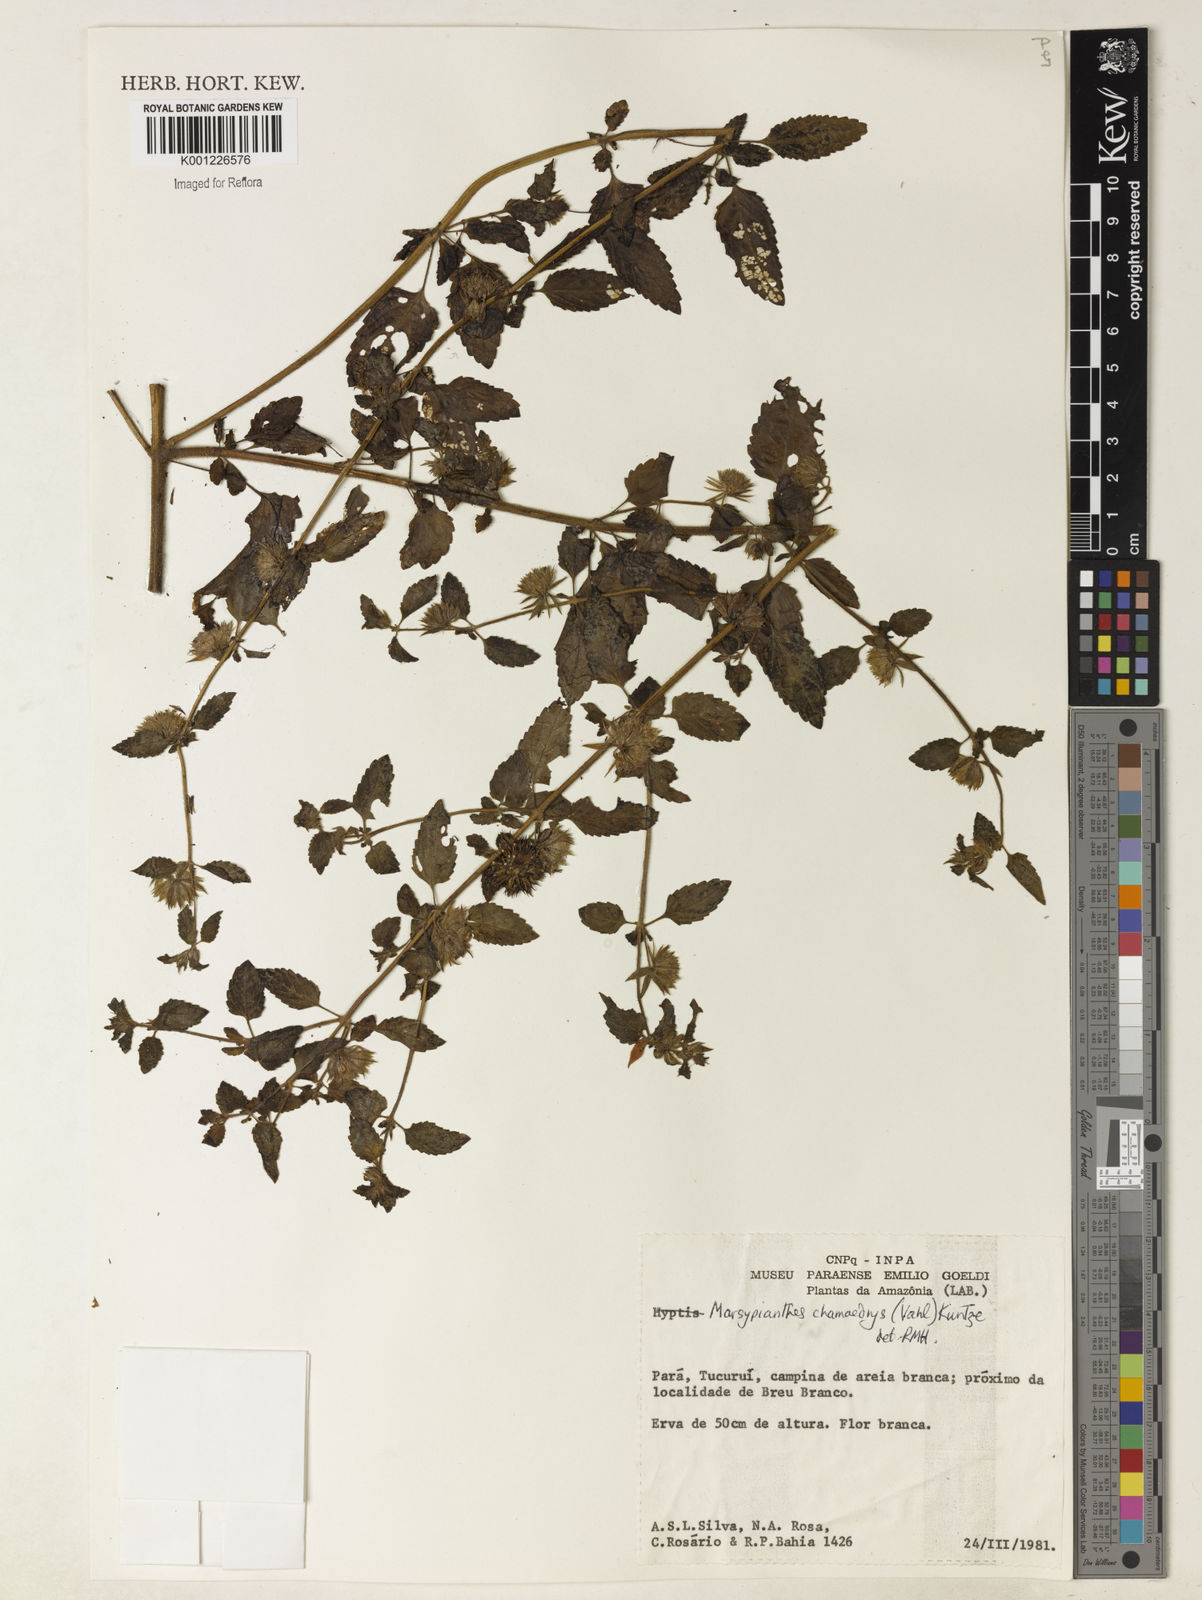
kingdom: Plantae
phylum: Tracheophyta
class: Magnoliopsida
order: Lamiales
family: Lamiaceae
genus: Marsypianthes
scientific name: Marsypianthes chamaedrys
